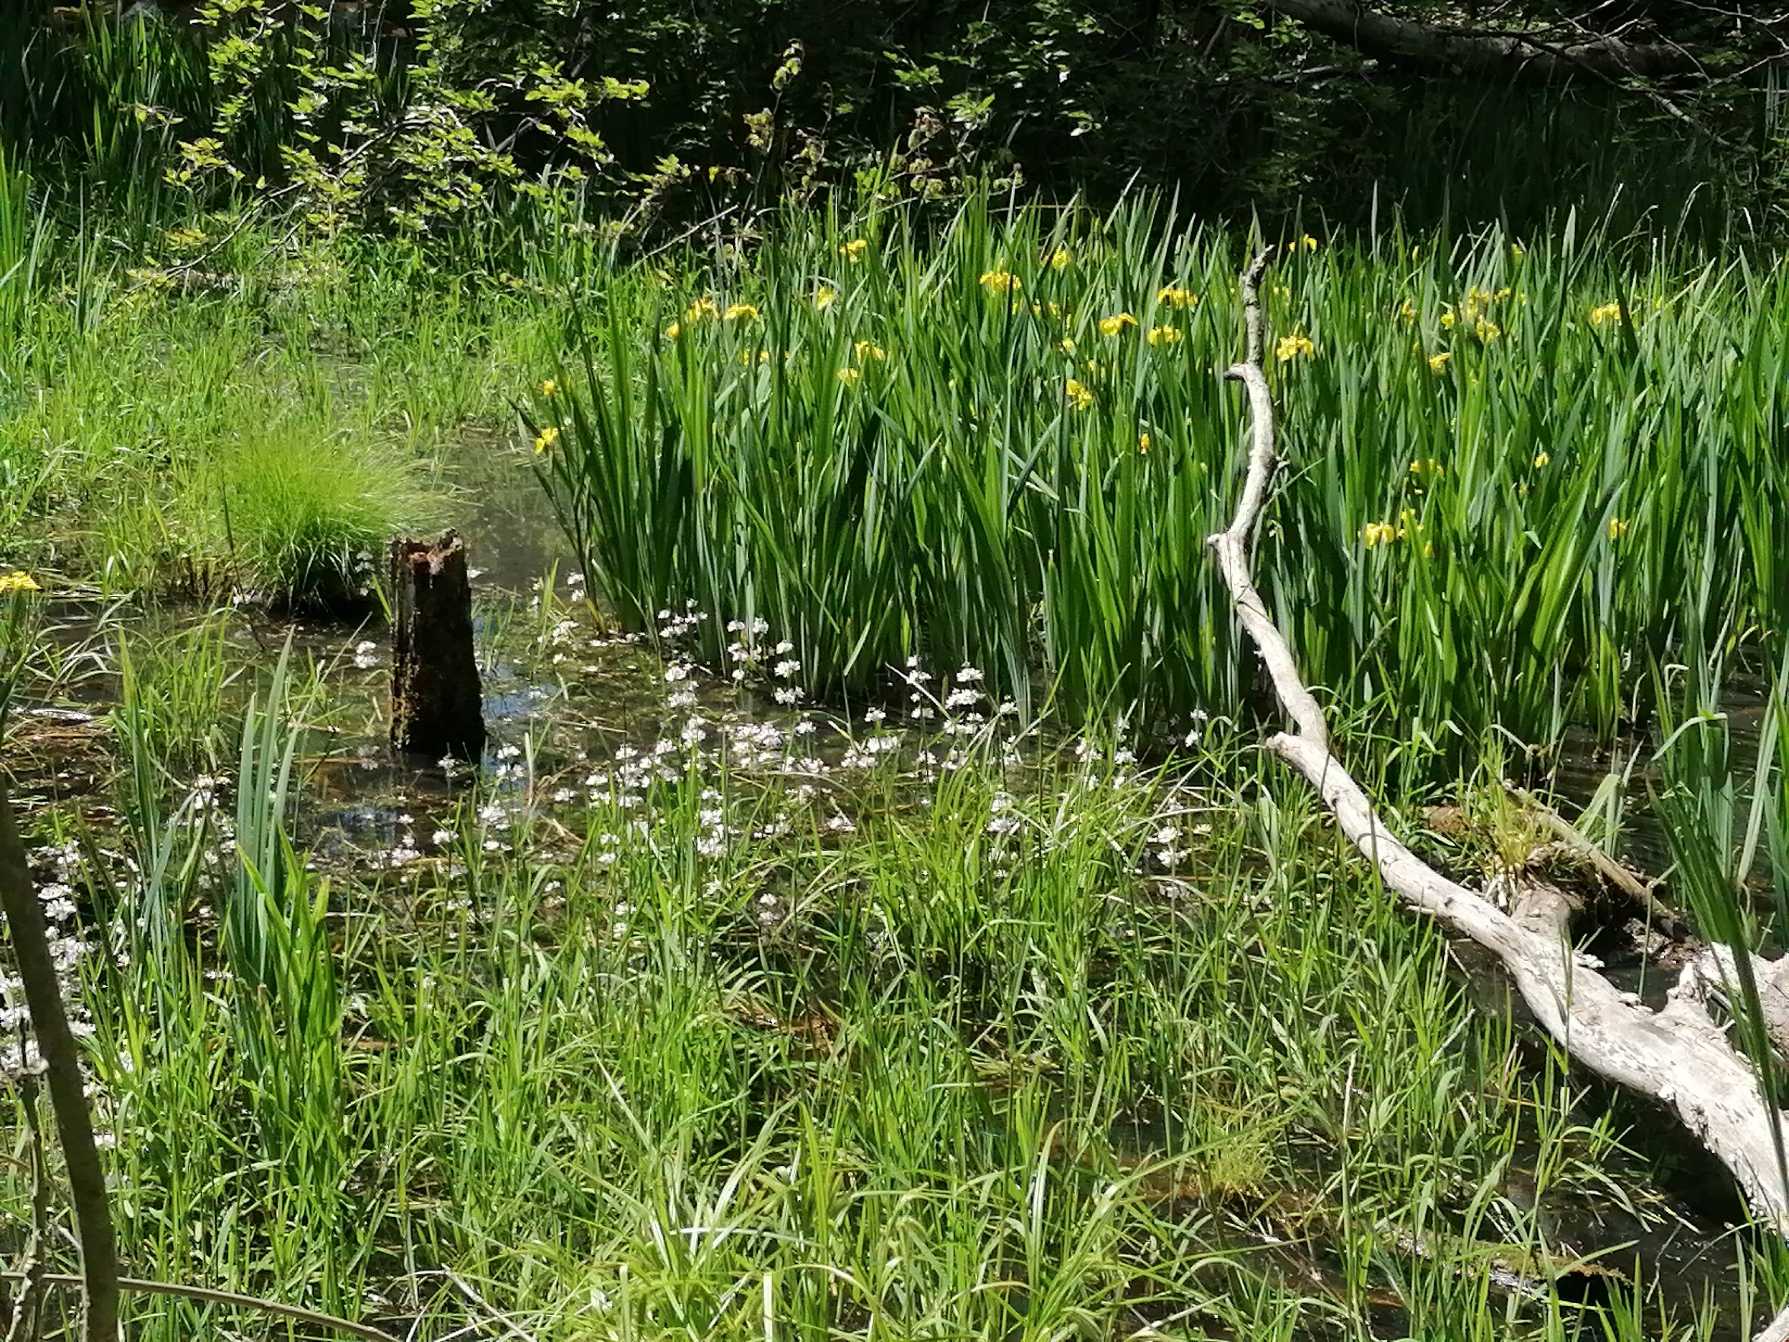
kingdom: Plantae
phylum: Tracheophyta
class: Magnoliopsida
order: Ericales
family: Primulaceae
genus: Hottonia
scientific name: Hottonia palustris
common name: Vandrøllike
